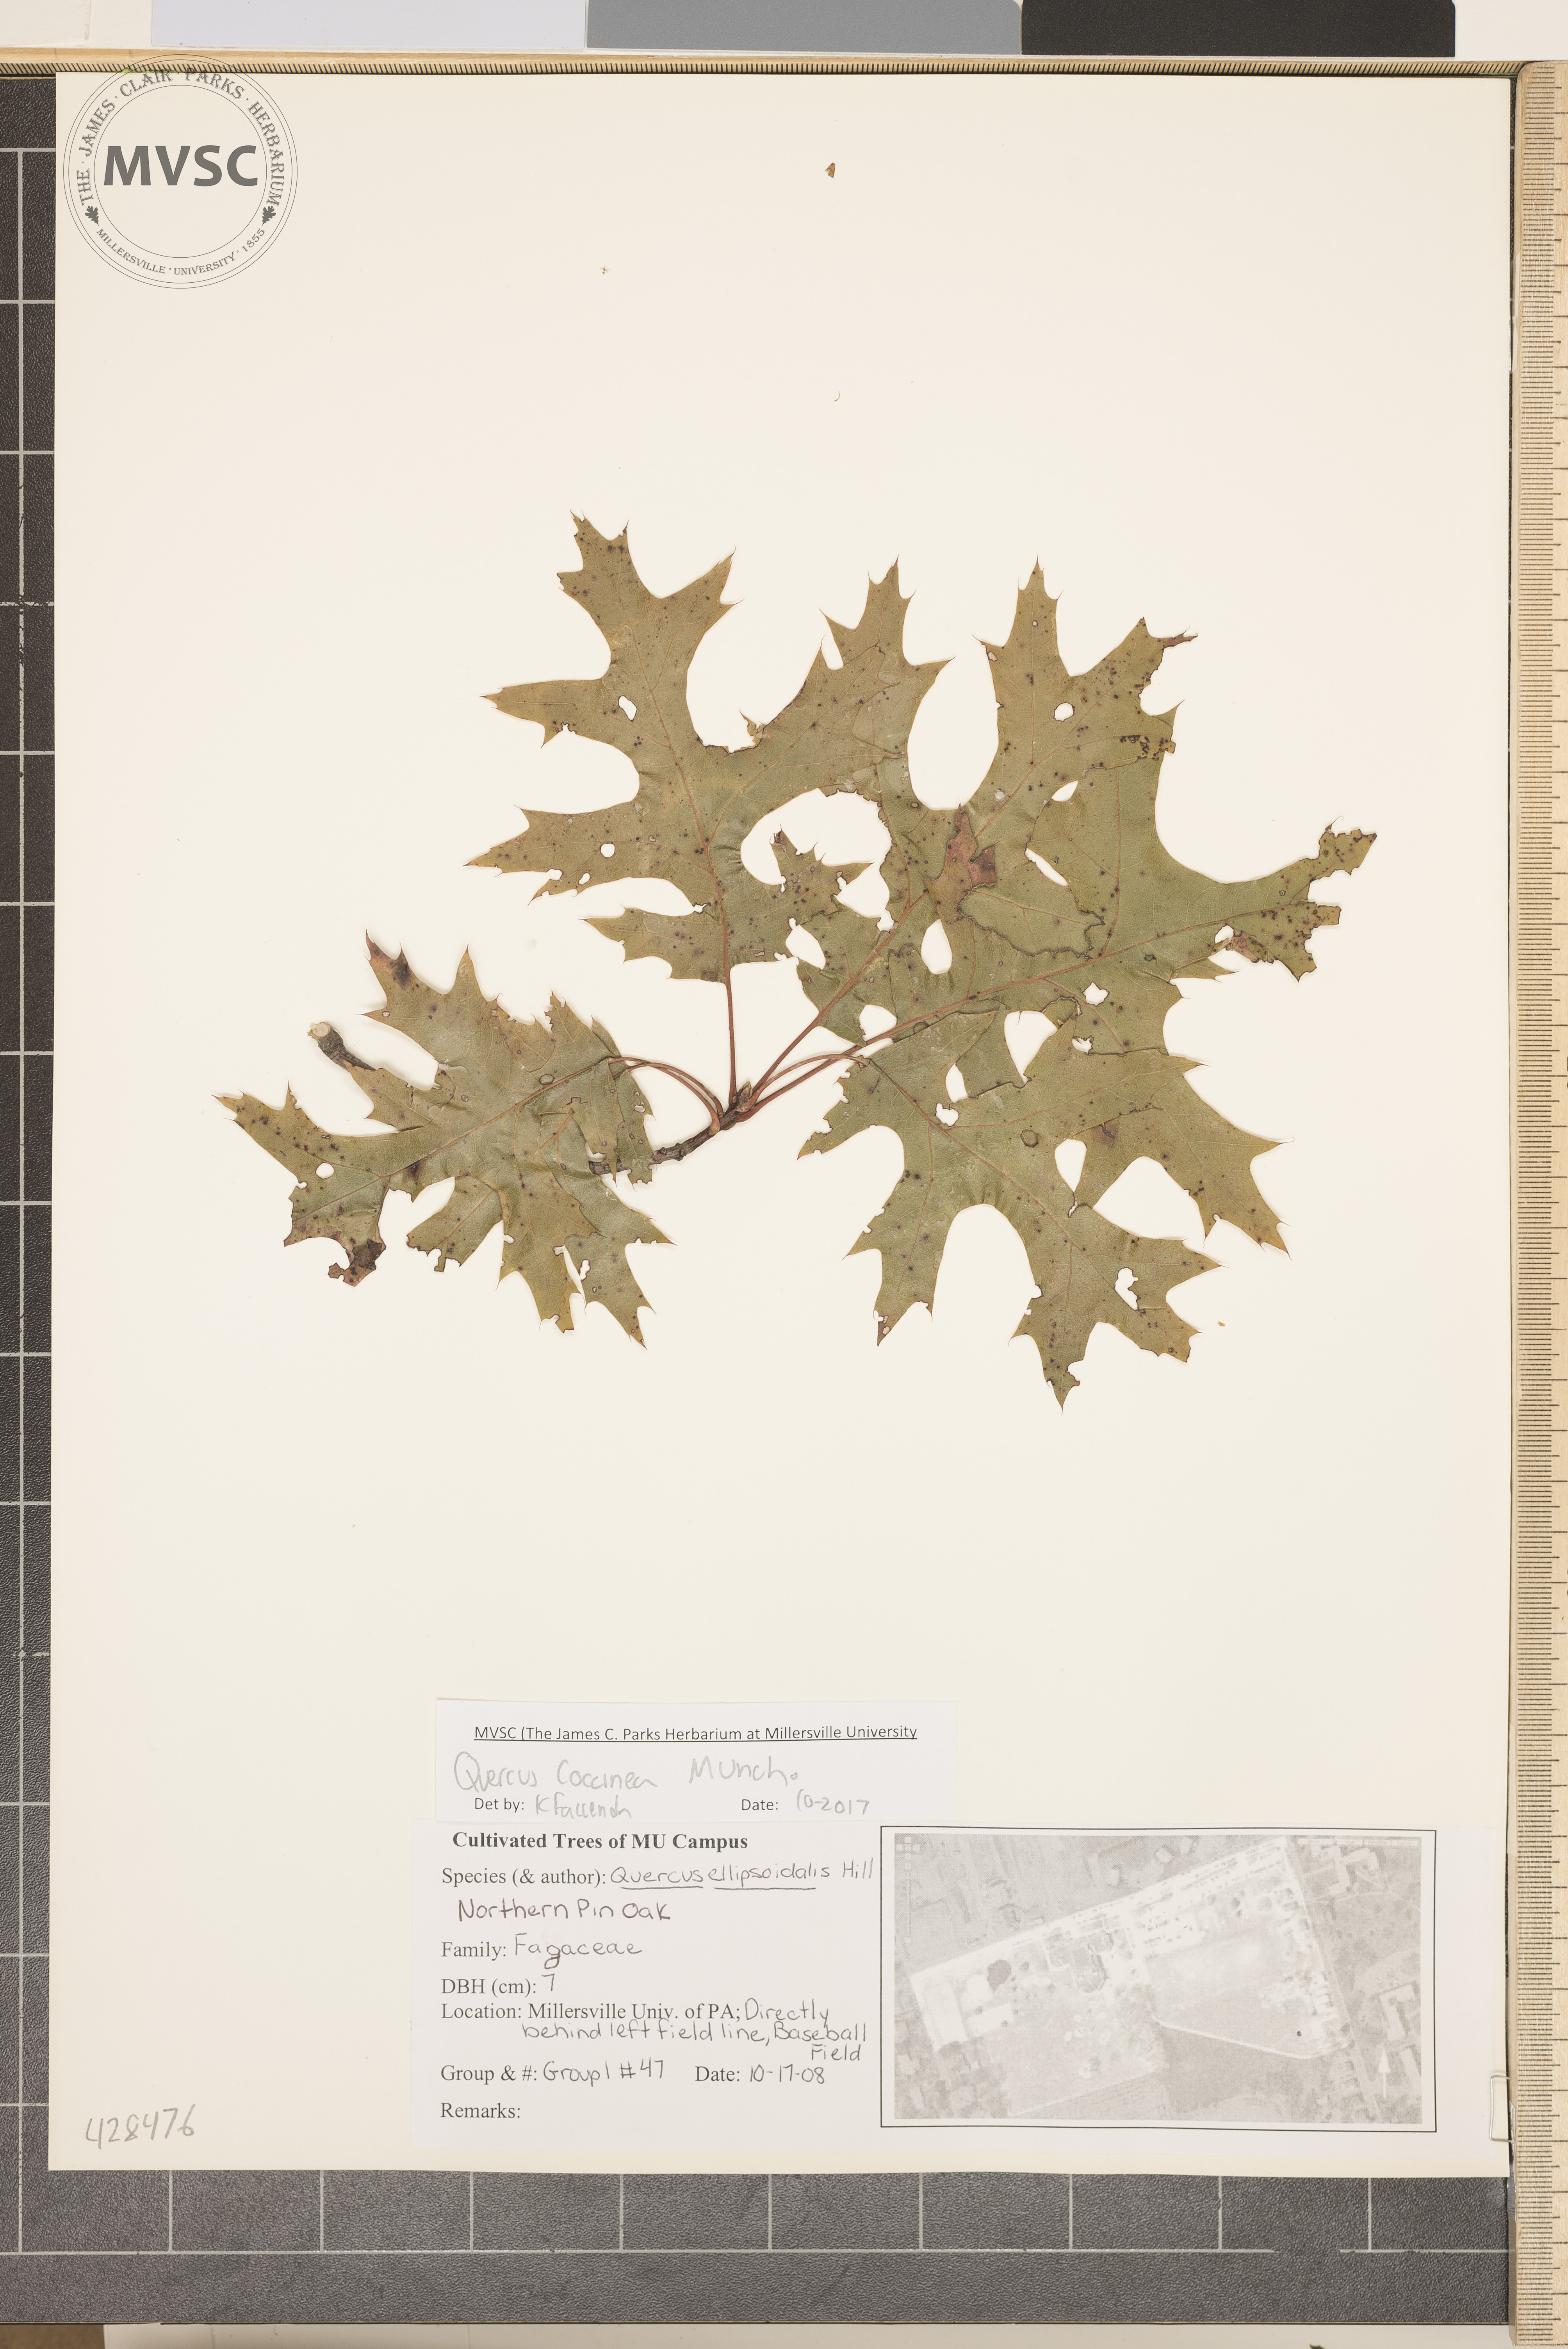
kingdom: Plantae
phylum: Tracheophyta
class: Magnoliopsida
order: Fagales
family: Fagaceae
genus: Quercus
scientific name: Quercus coccinea
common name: Scarlet oak
